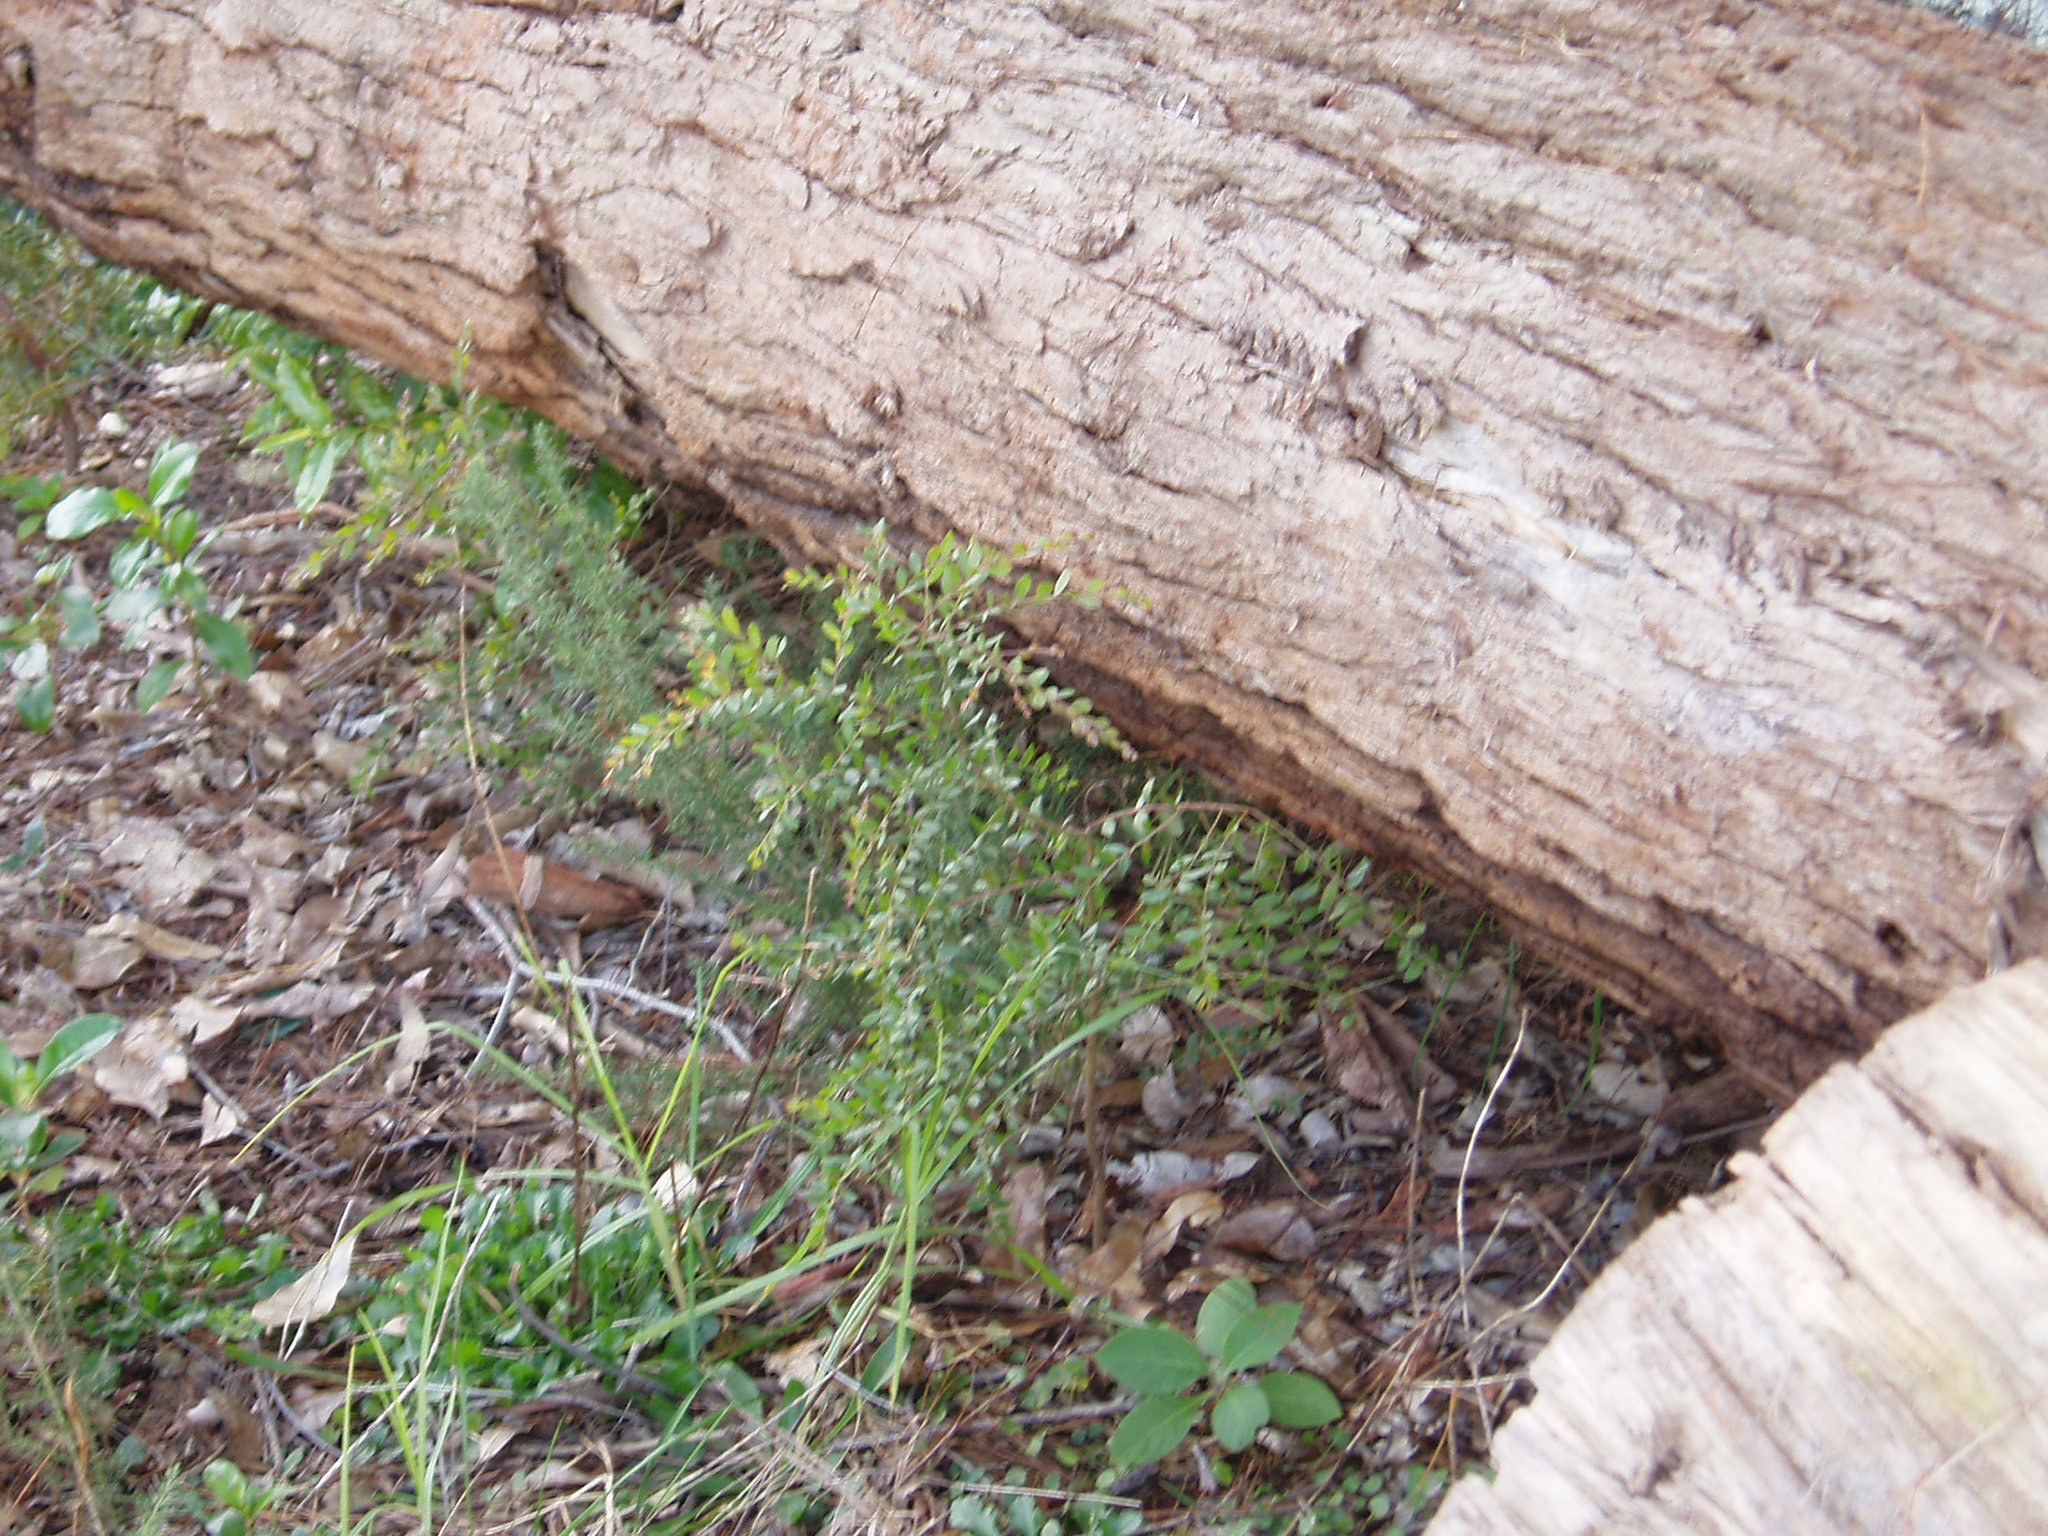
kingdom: Plantae
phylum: Tracheophyta
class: Magnoliopsida
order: Fabales
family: Fabaceae
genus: Acacia
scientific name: Acacia prominens
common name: Gosford wattle
